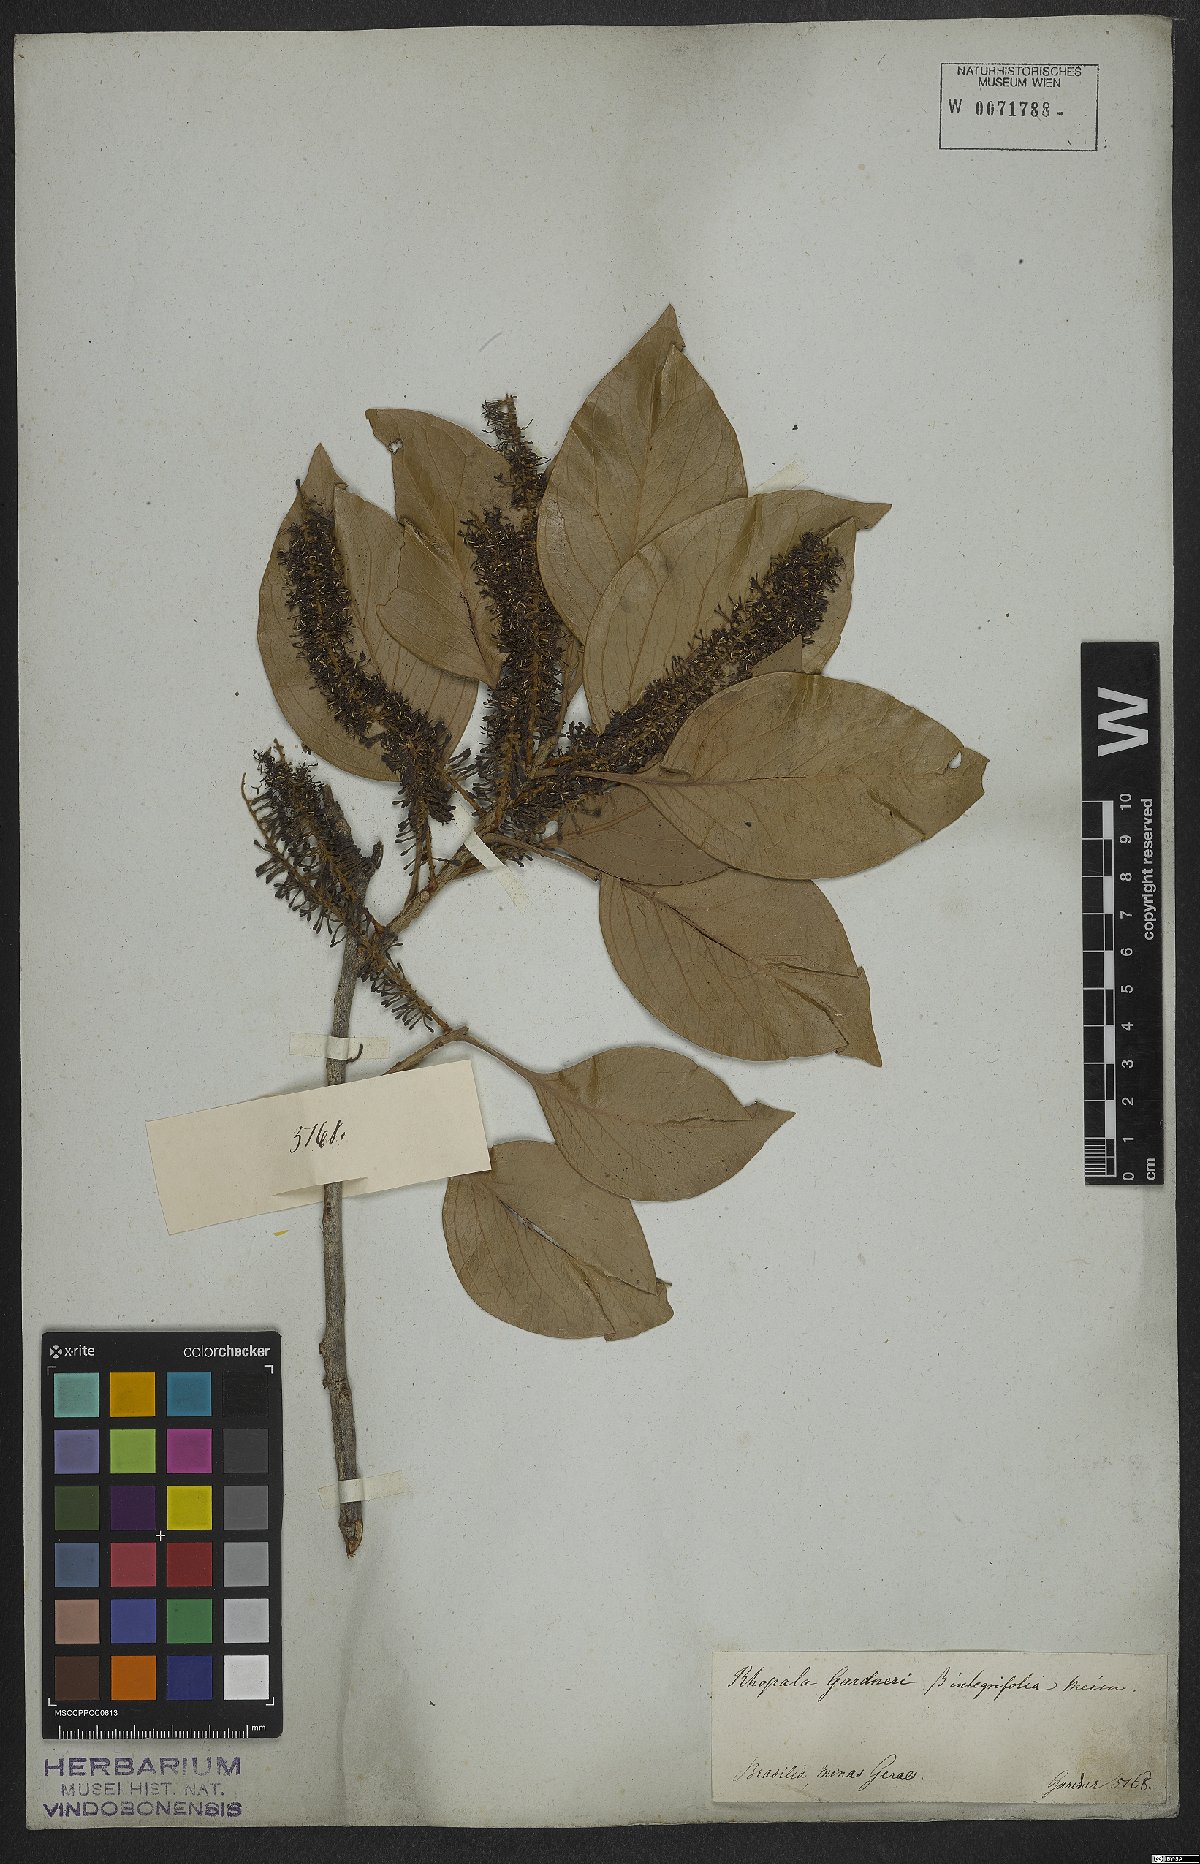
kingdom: Plantae
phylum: Tracheophyta
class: Magnoliopsida
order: Proteales
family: Proteaceae
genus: Roupala
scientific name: Roupala montana
